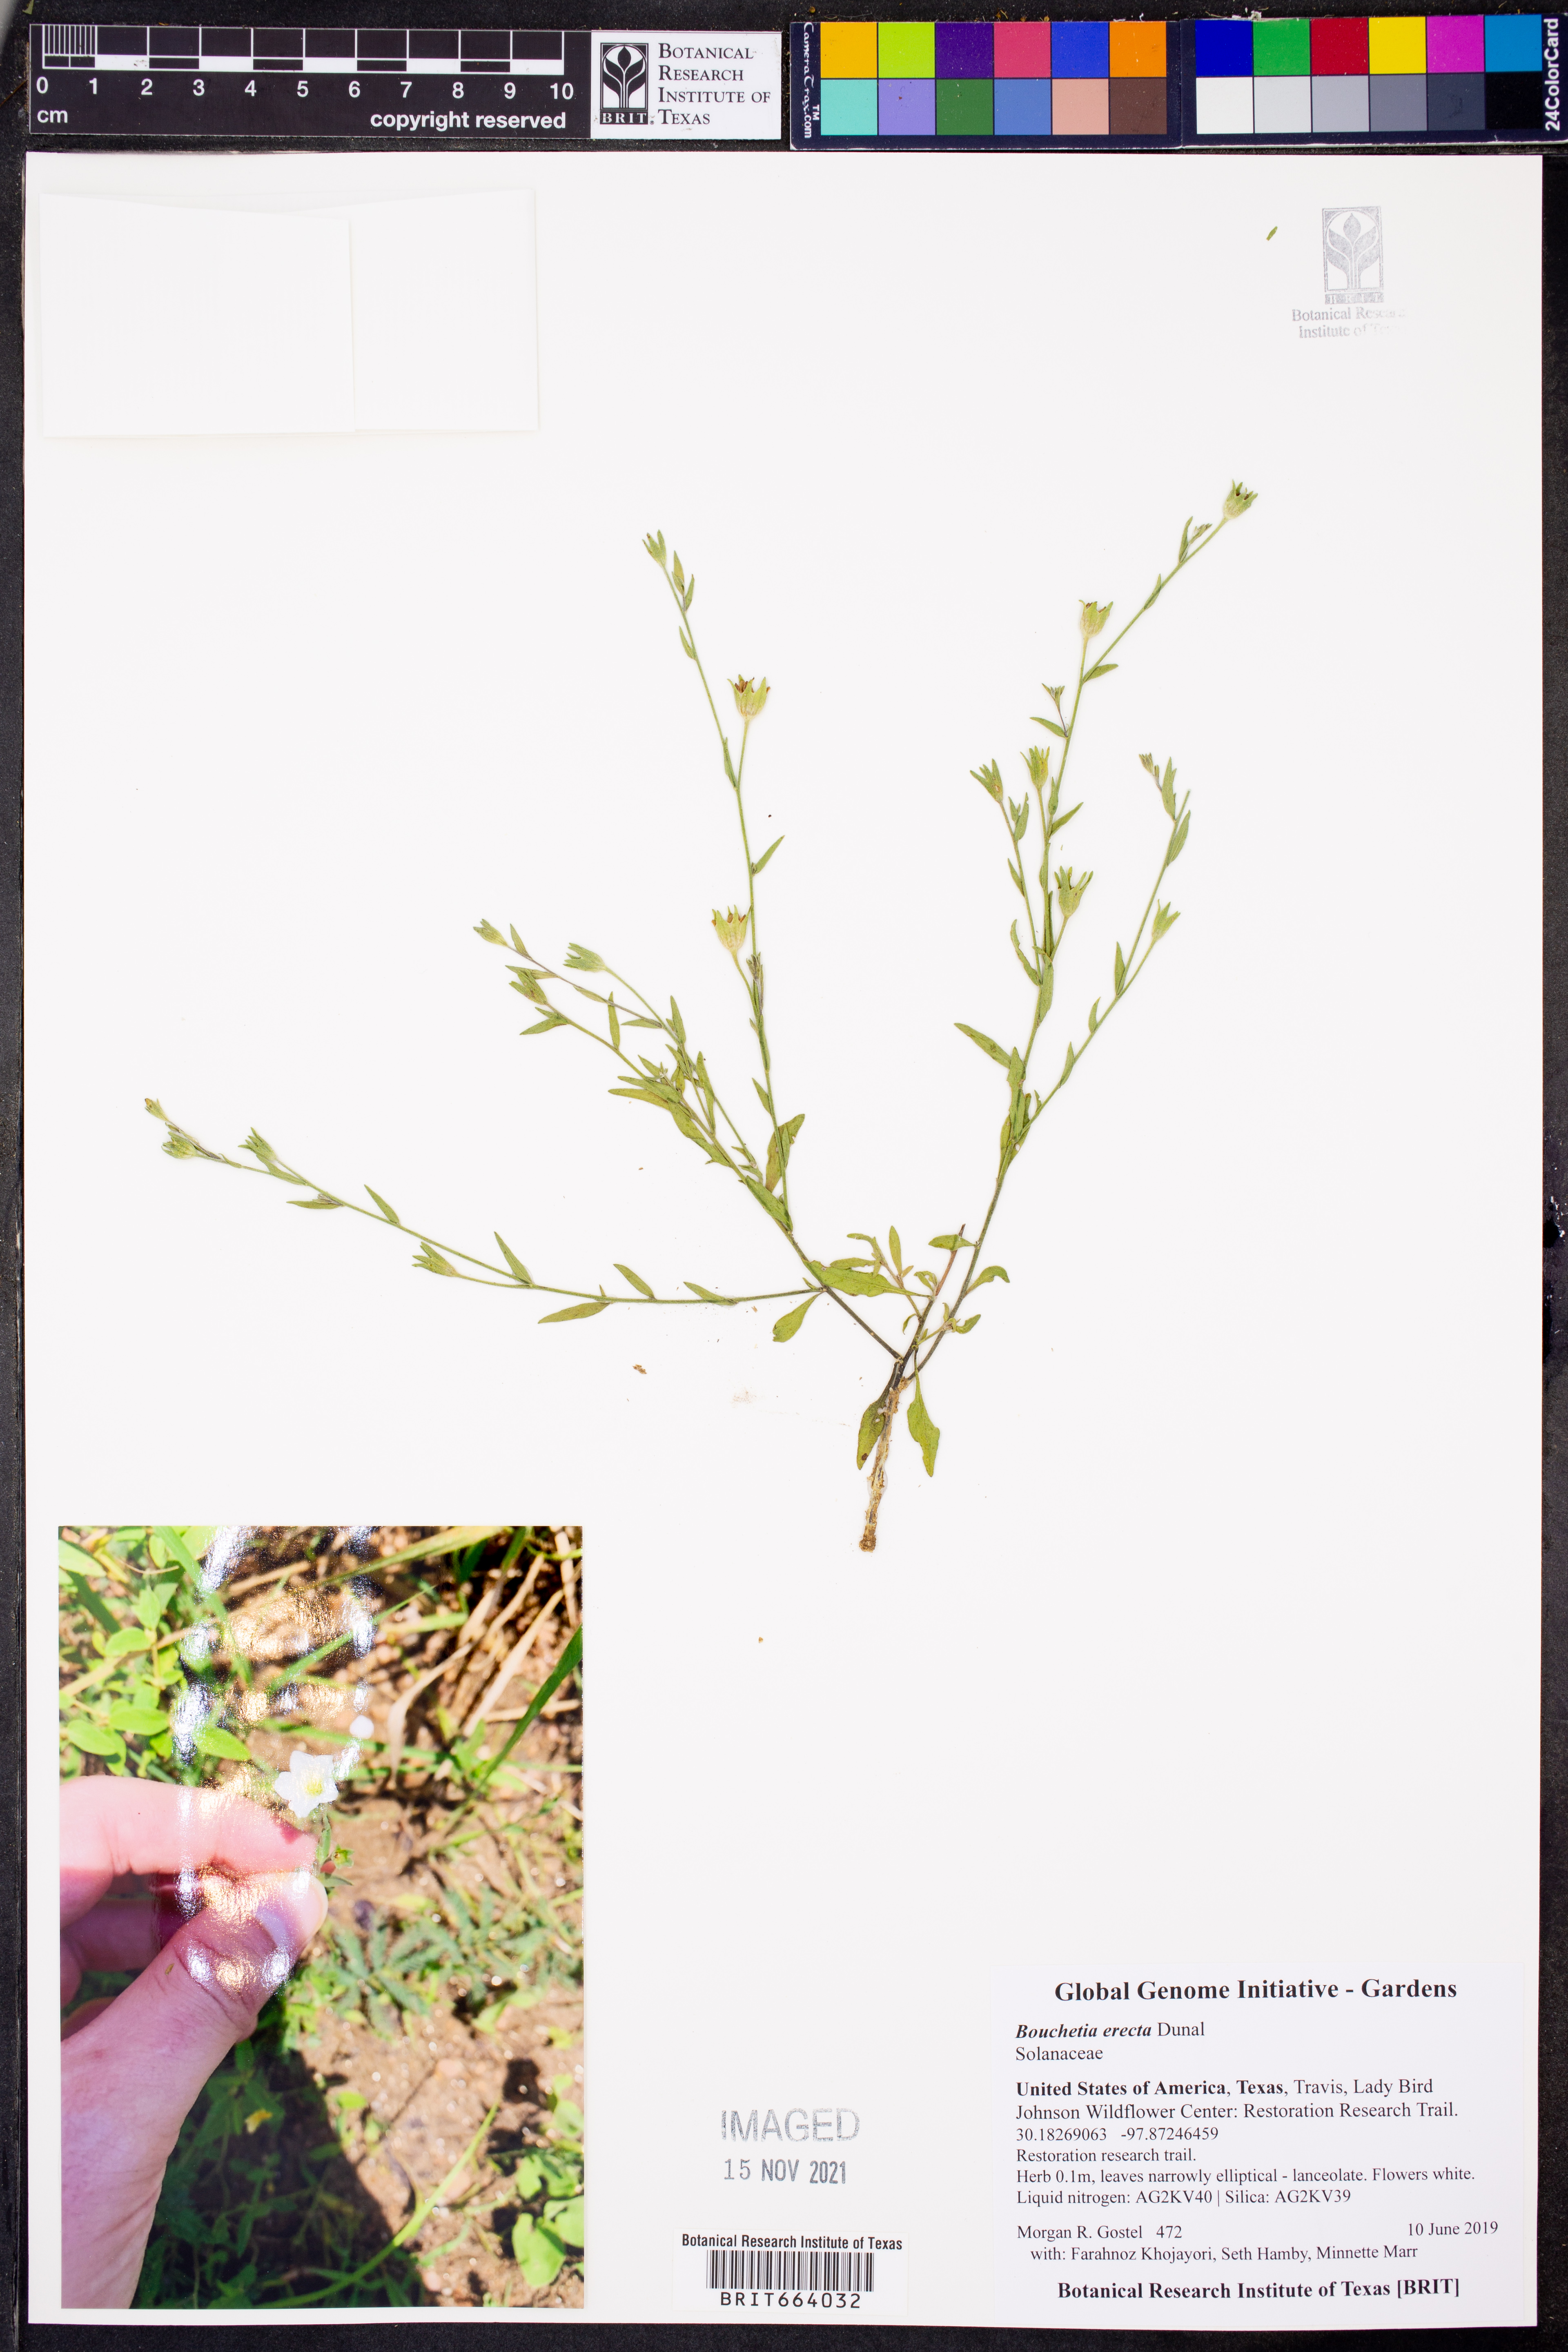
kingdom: Plantae
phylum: Tracheophyta
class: Magnoliopsida
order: Solanales
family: Solanaceae
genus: Salpiglossis
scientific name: Salpiglossis erecta
